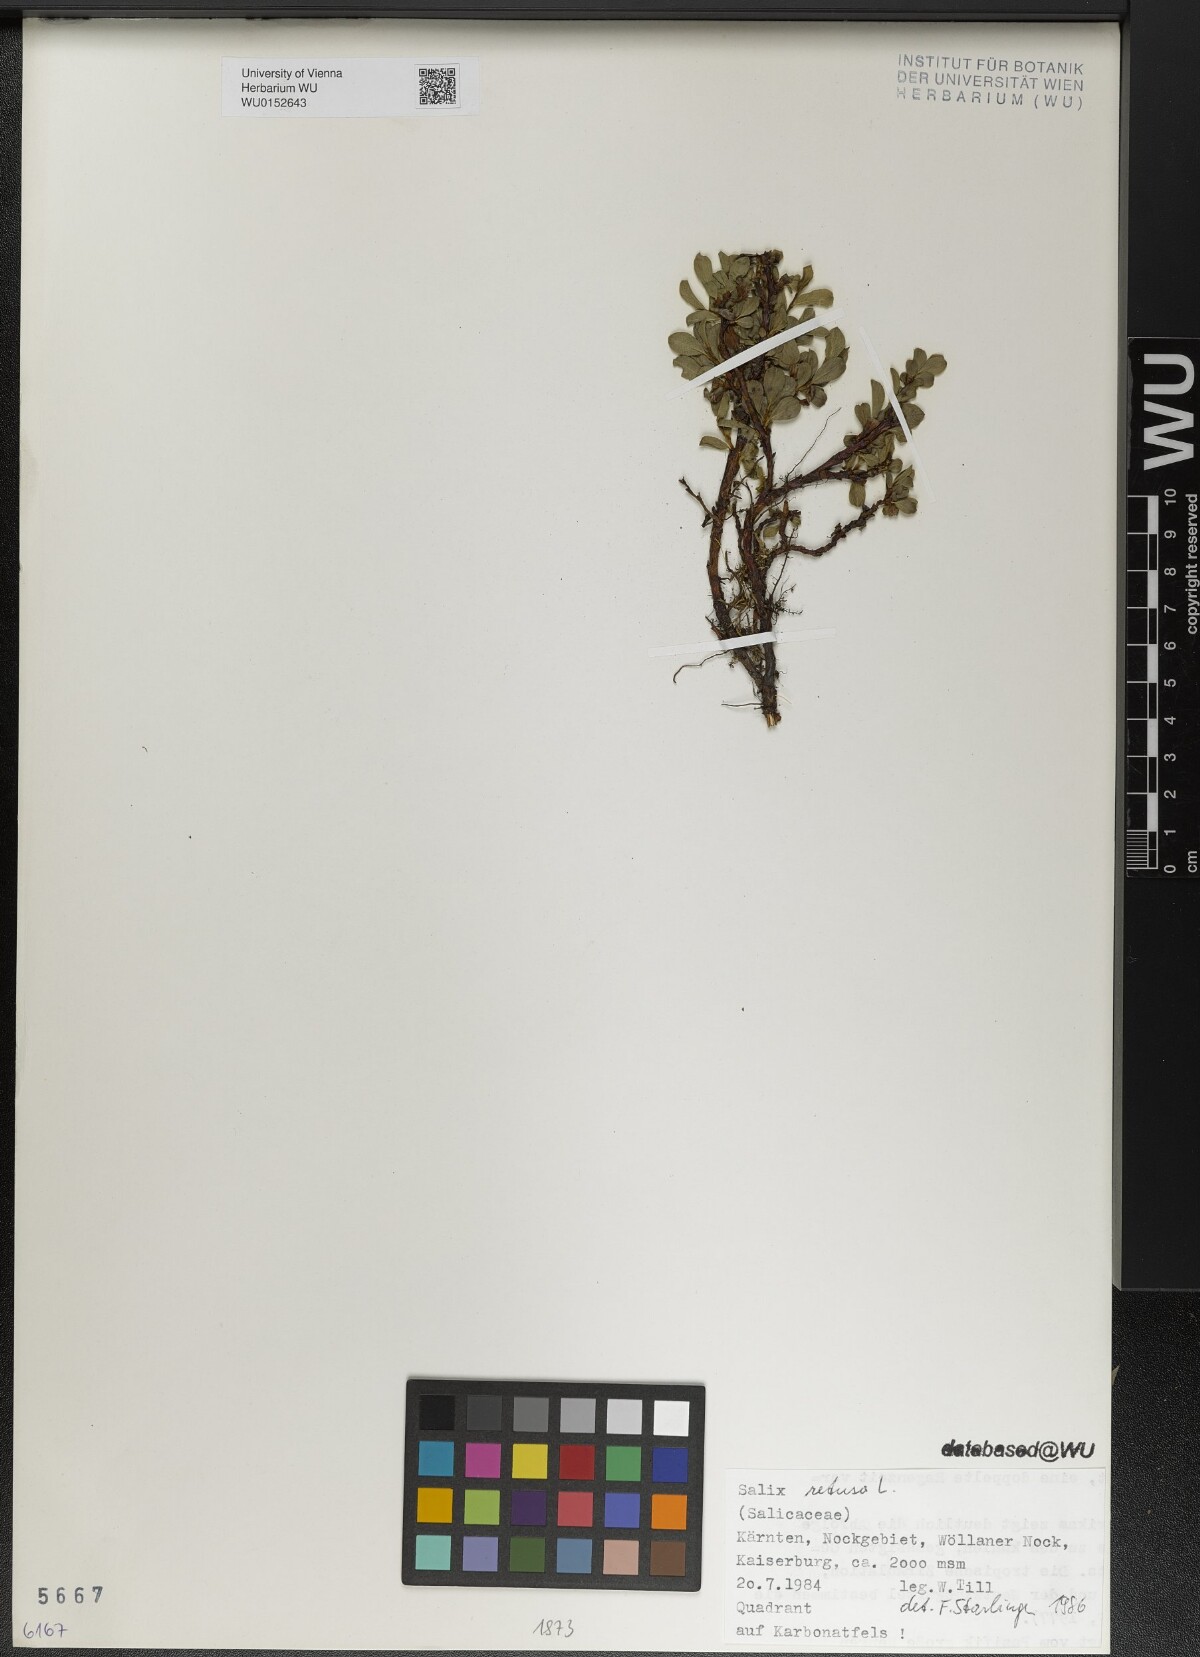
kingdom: Plantae
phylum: Tracheophyta
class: Magnoliopsida
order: Malpighiales
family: Salicaceae
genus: Salix
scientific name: Salix retusa
